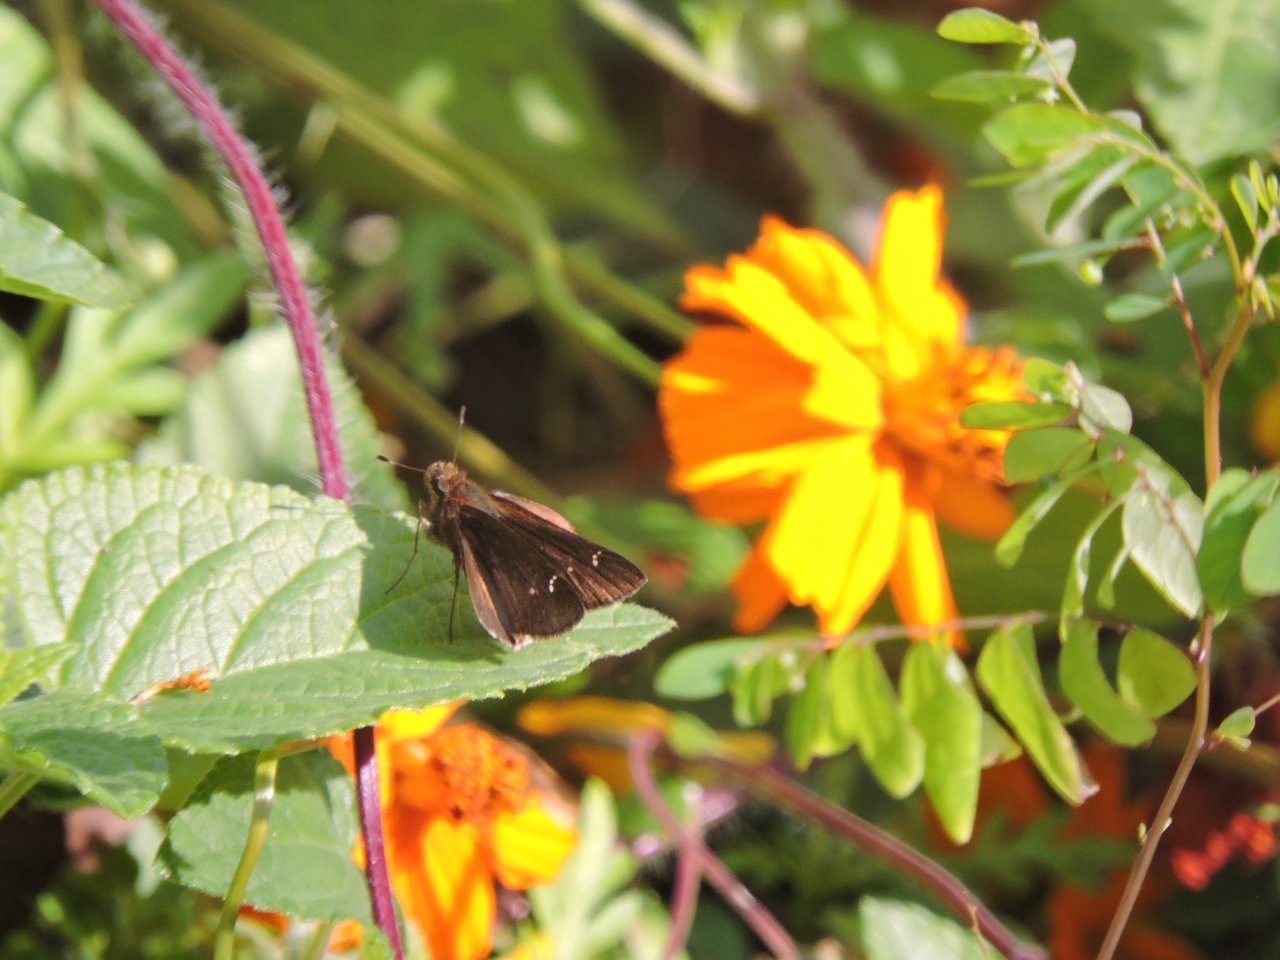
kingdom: Animalia
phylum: Arthropoda
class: Insecta
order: Lepidoptera
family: Hesperiidae
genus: Lerema
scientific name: Lerema accius
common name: Clouded Skipper
